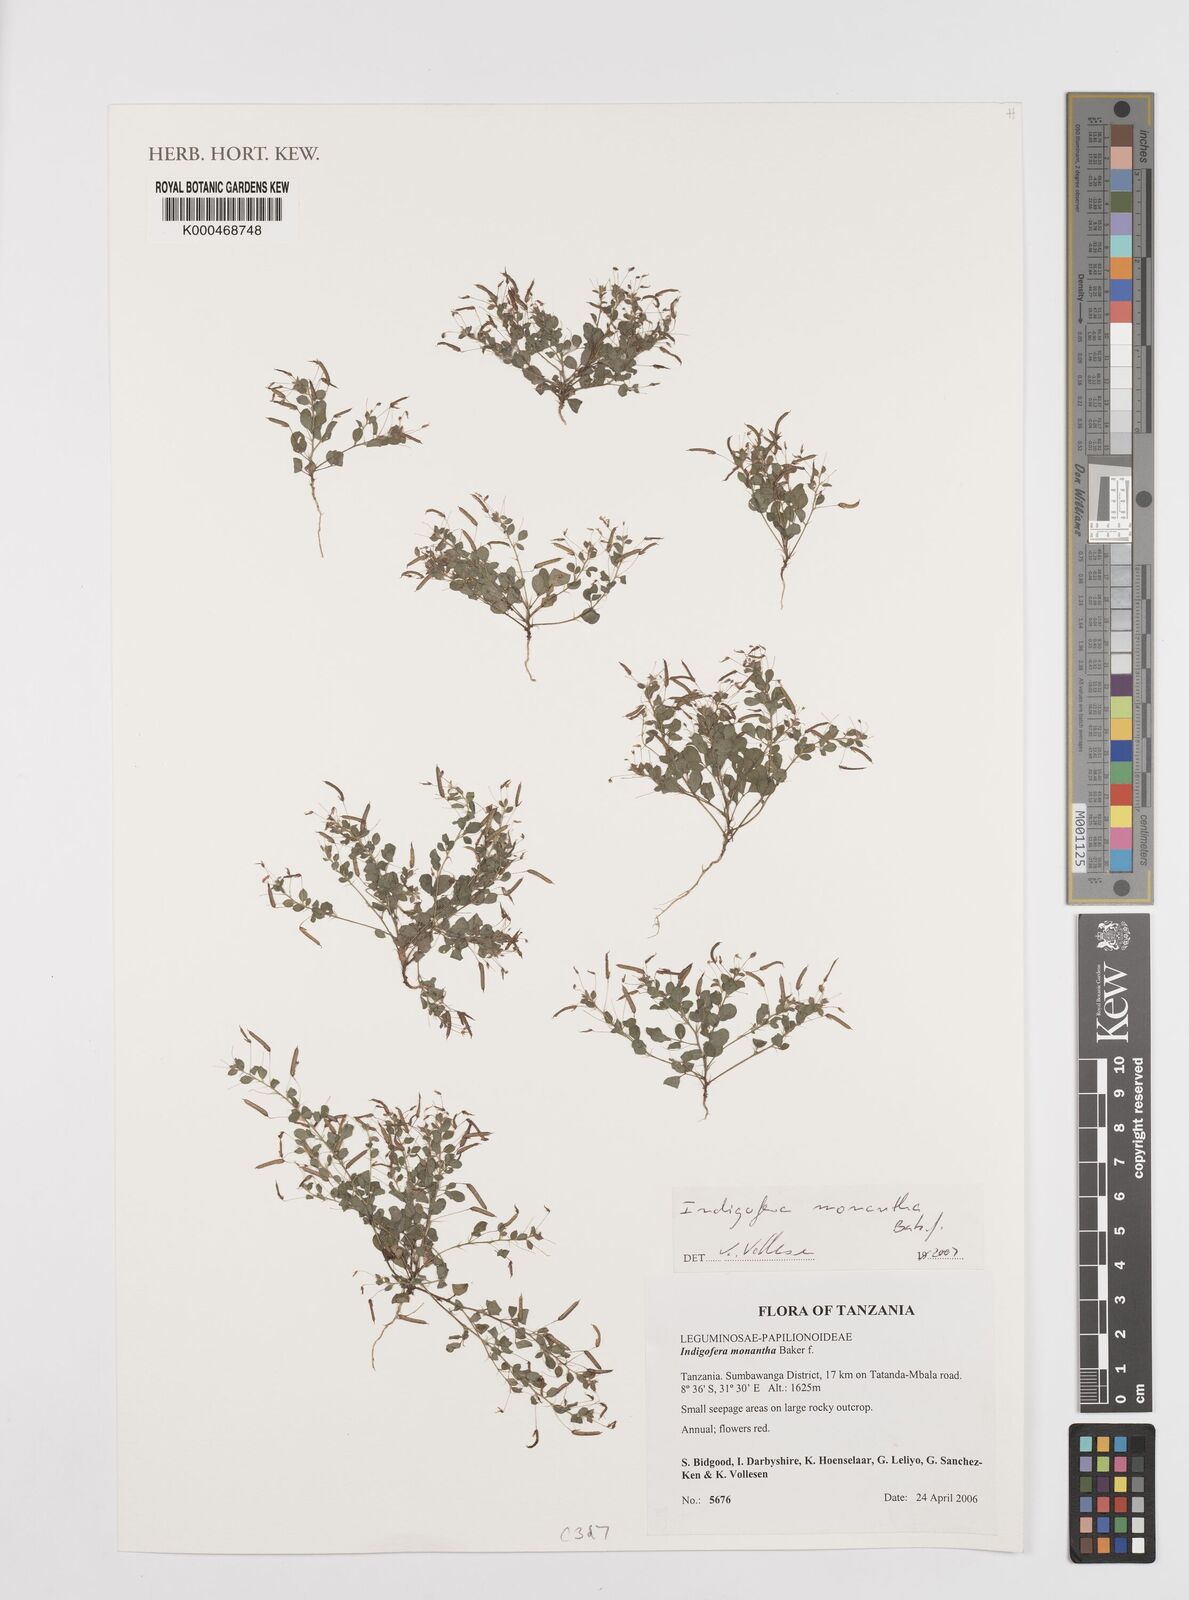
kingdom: Plantae
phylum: Tracheophyta
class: Magnoliopsida
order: Fabales
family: Fabaceae
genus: Indigofera
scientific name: Indigofera monantha
